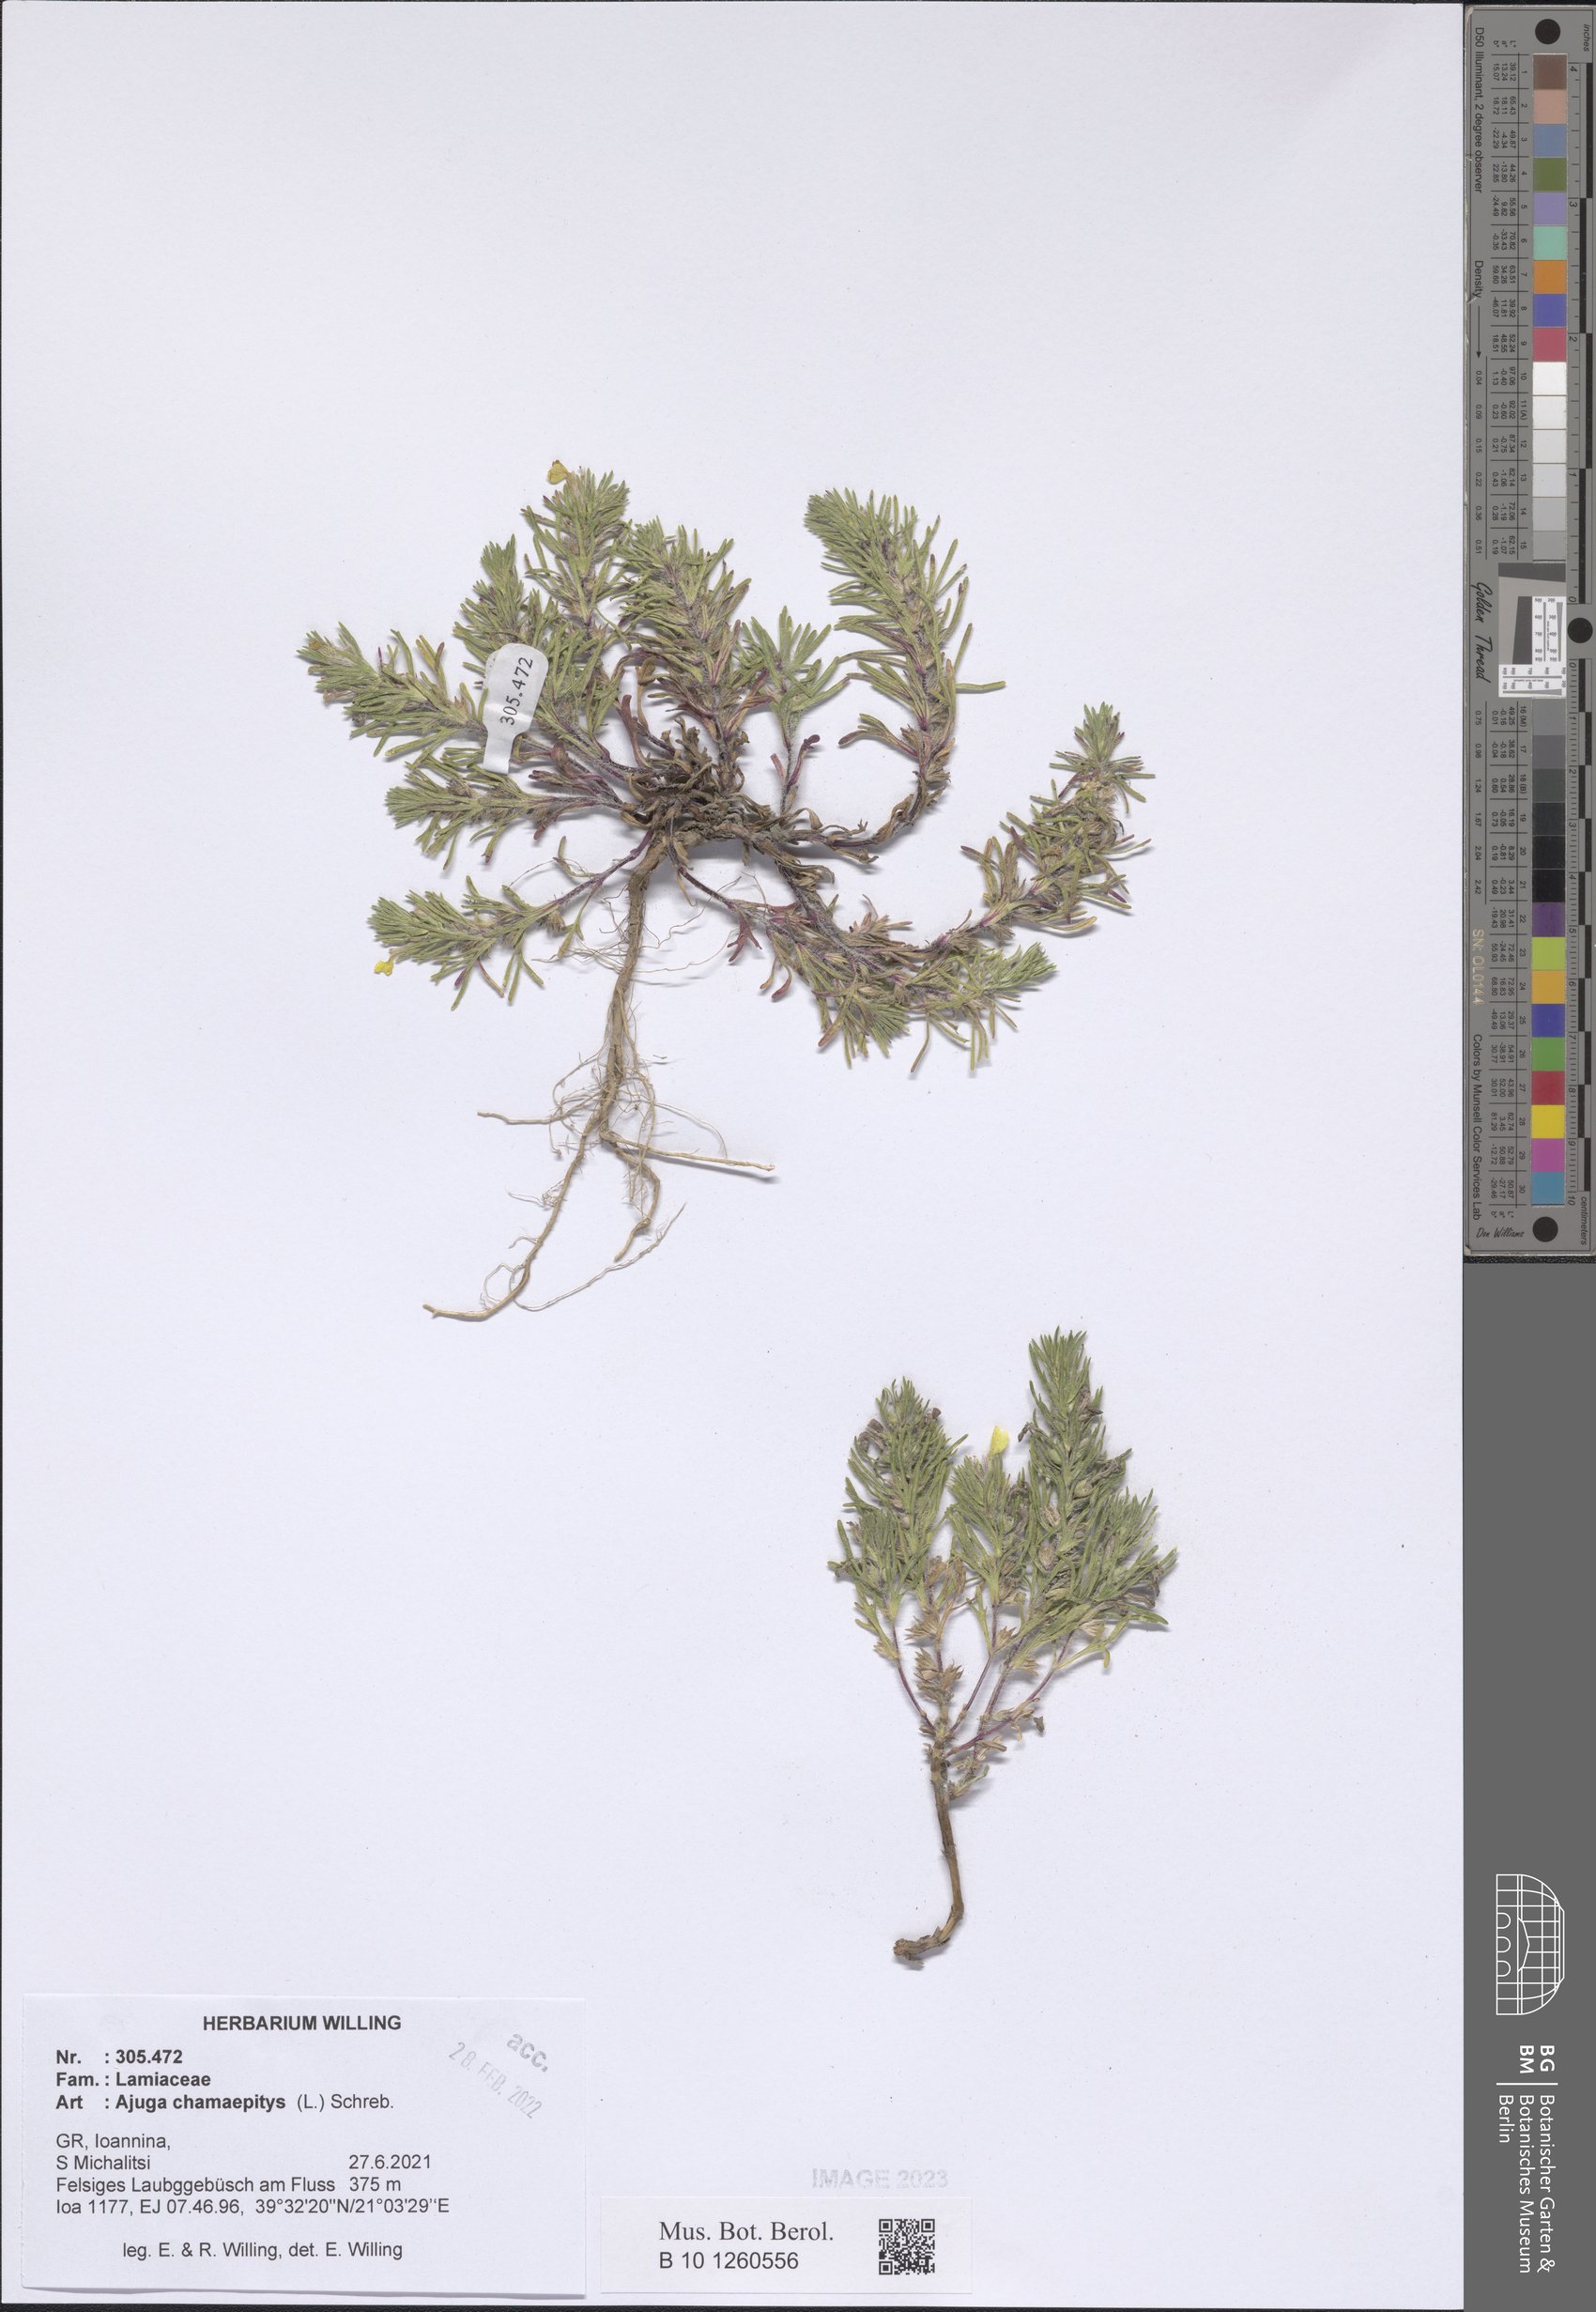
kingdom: Plantae
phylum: Tracheophyta
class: Magnoliopsida
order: Lamiales
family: Lamiaceae
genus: Ajuga
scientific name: Ajuga chamaepitys
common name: Ground-pine
